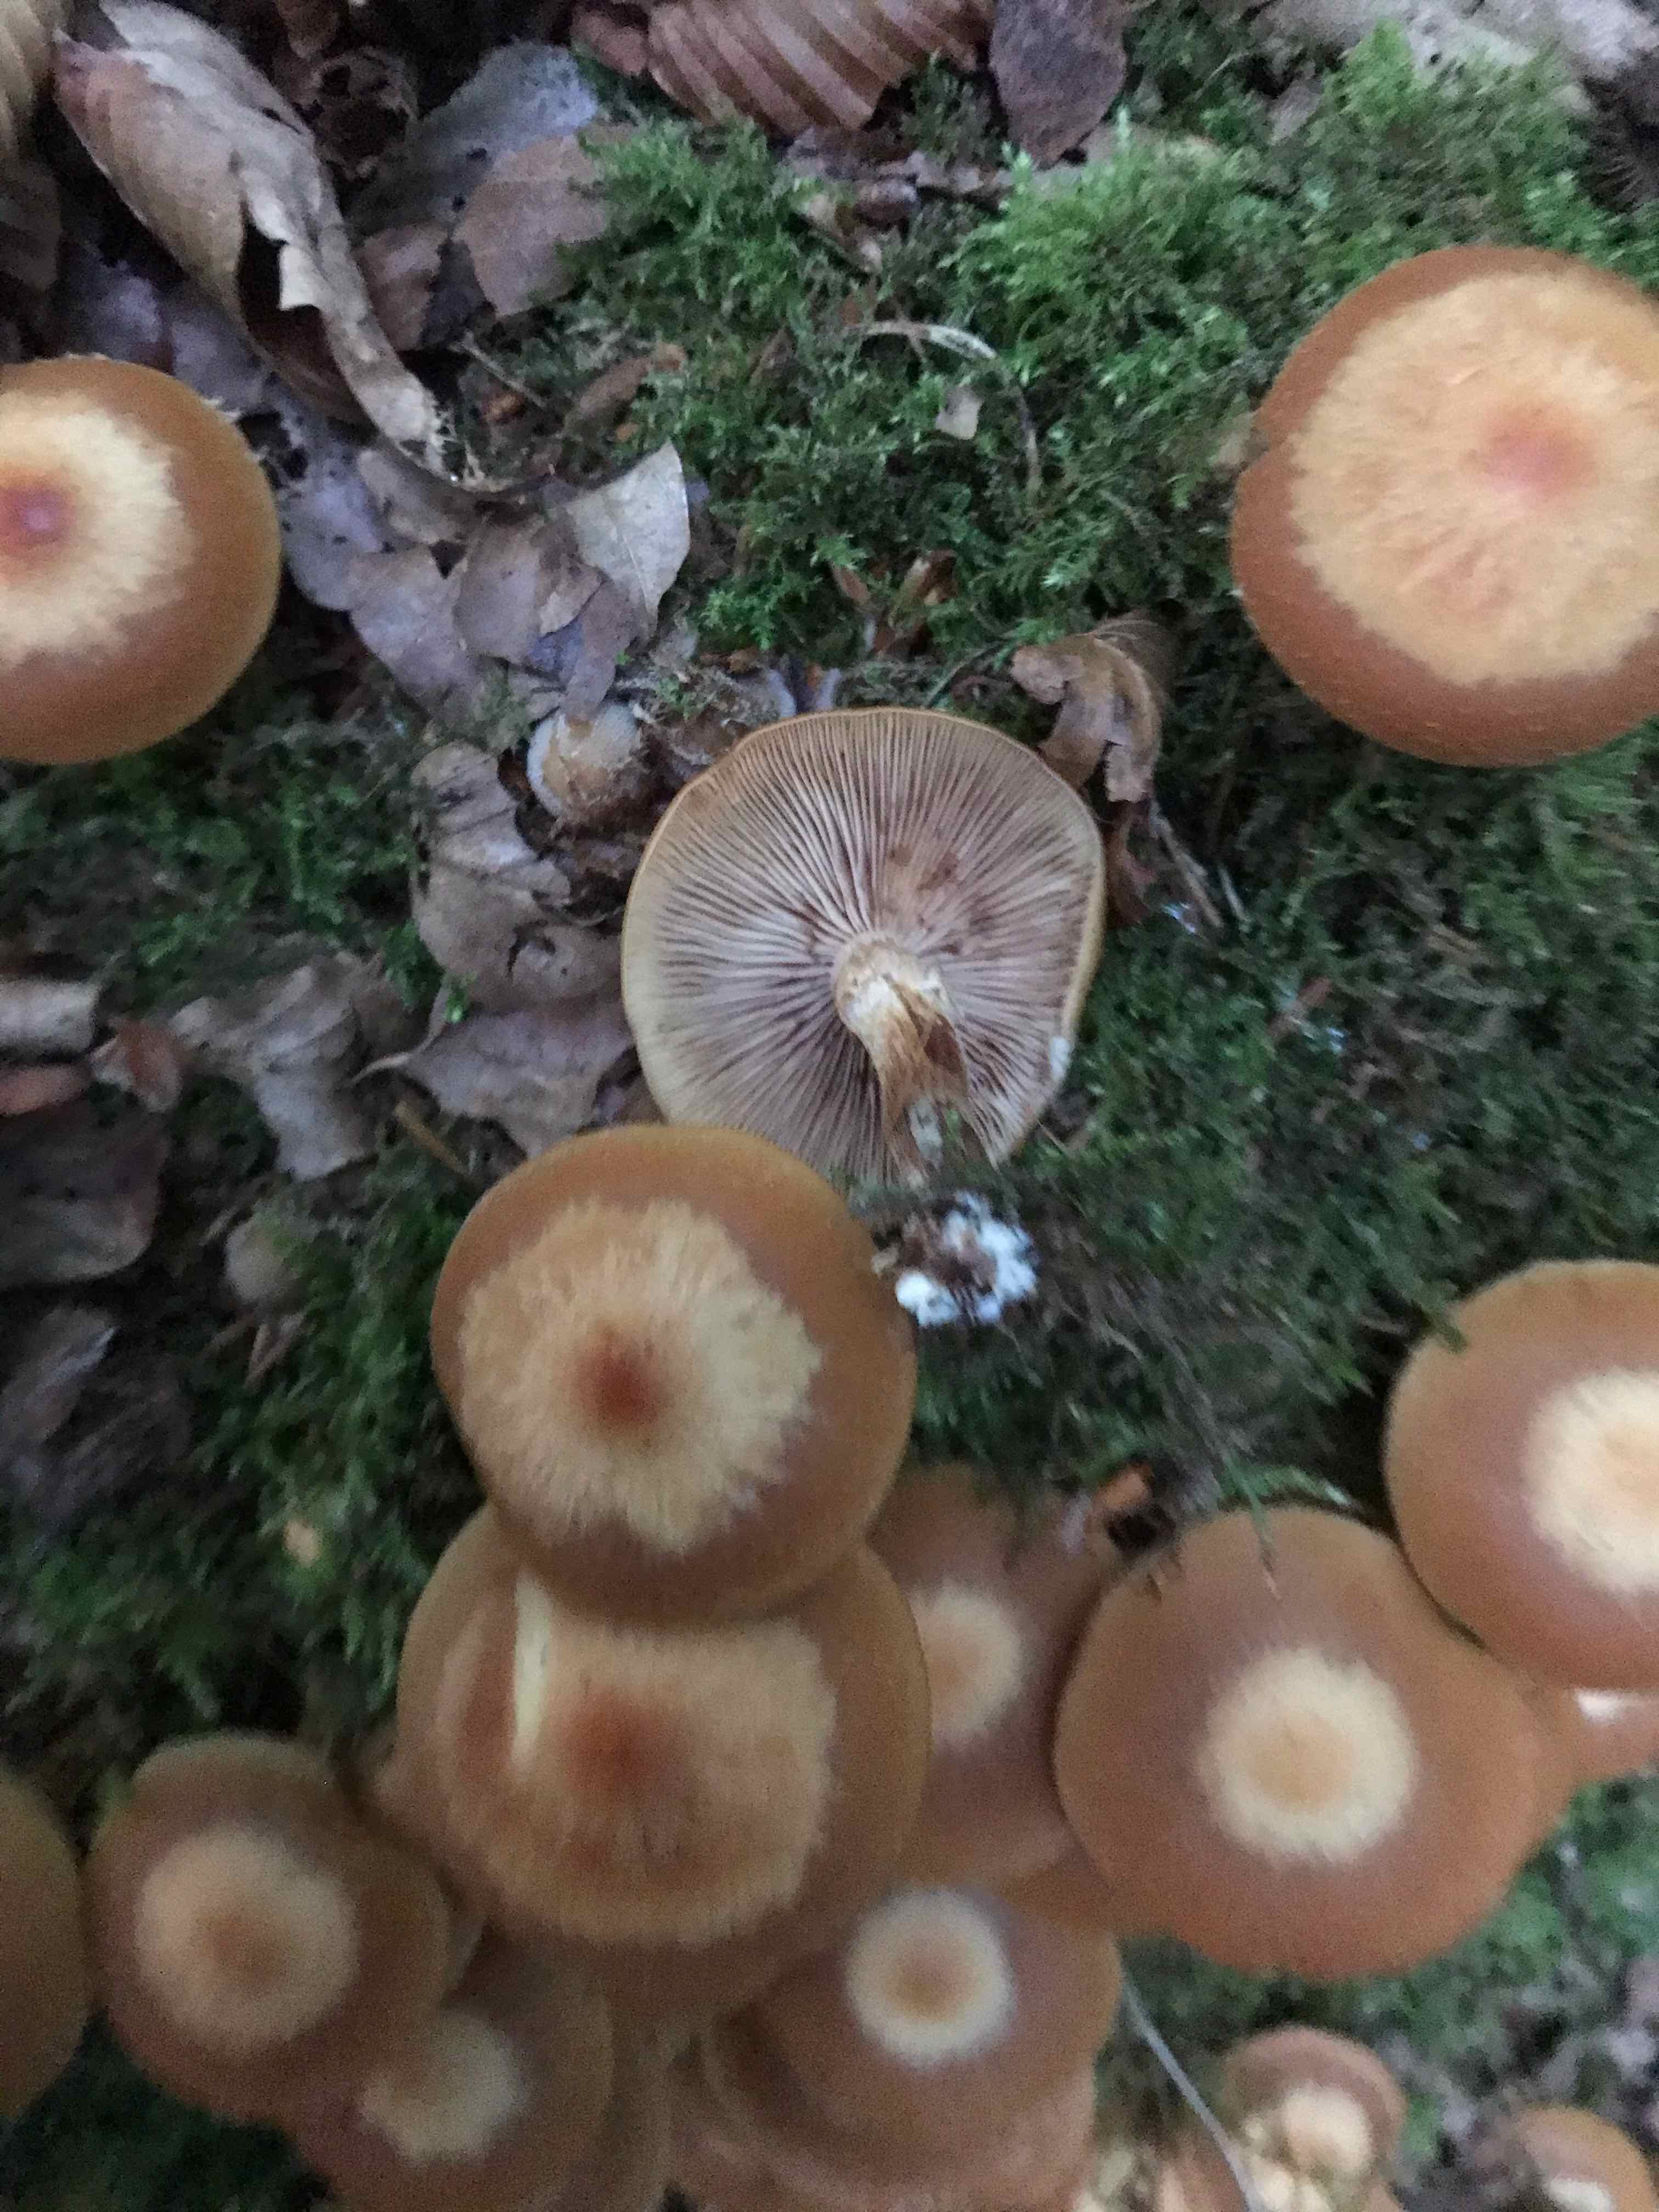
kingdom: Fungi
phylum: Basidiomycota
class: Agaricomycetes
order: Agaricales
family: Strophariaceae
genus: Kuehneromyces
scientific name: Kuehneromyces mutabilis
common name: foranderlig skælhat
